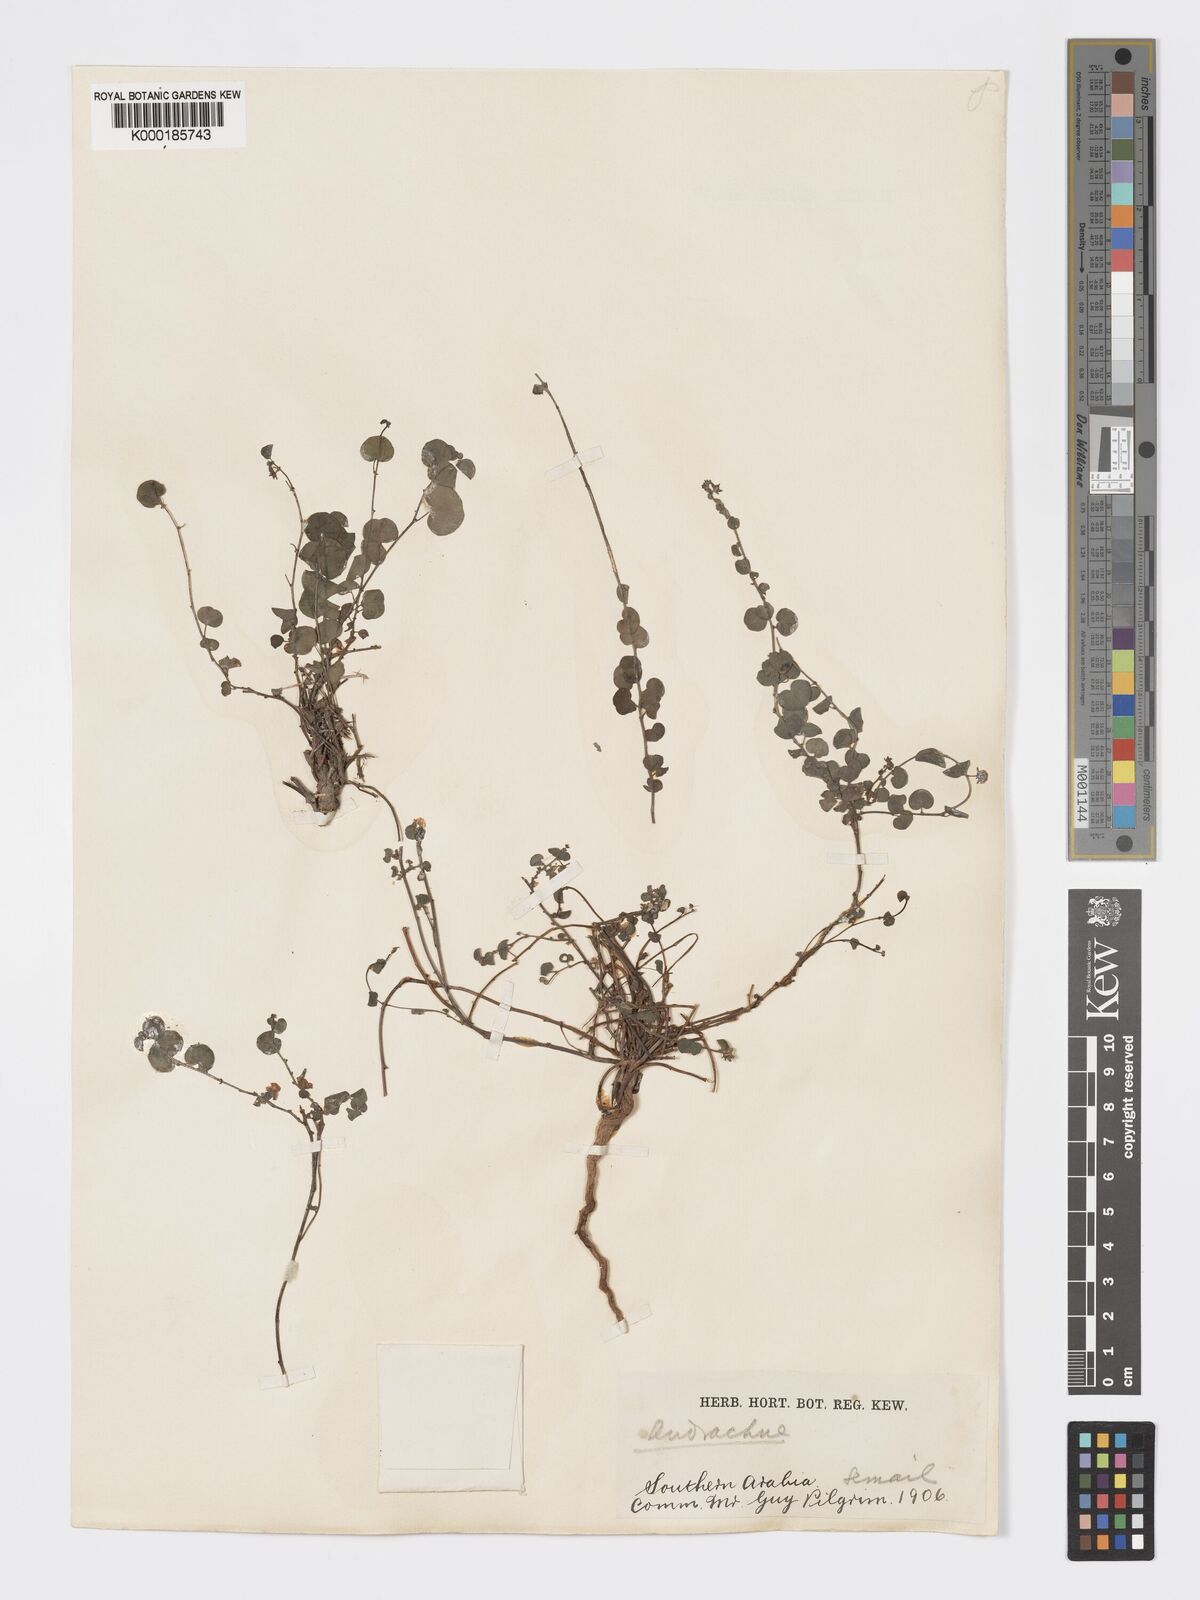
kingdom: Plantae
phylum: Tracheophyta
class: Magnoliopsida
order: Malpighiales
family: Phyllanthaceae
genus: Andrachne
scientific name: Andrachne aspera
